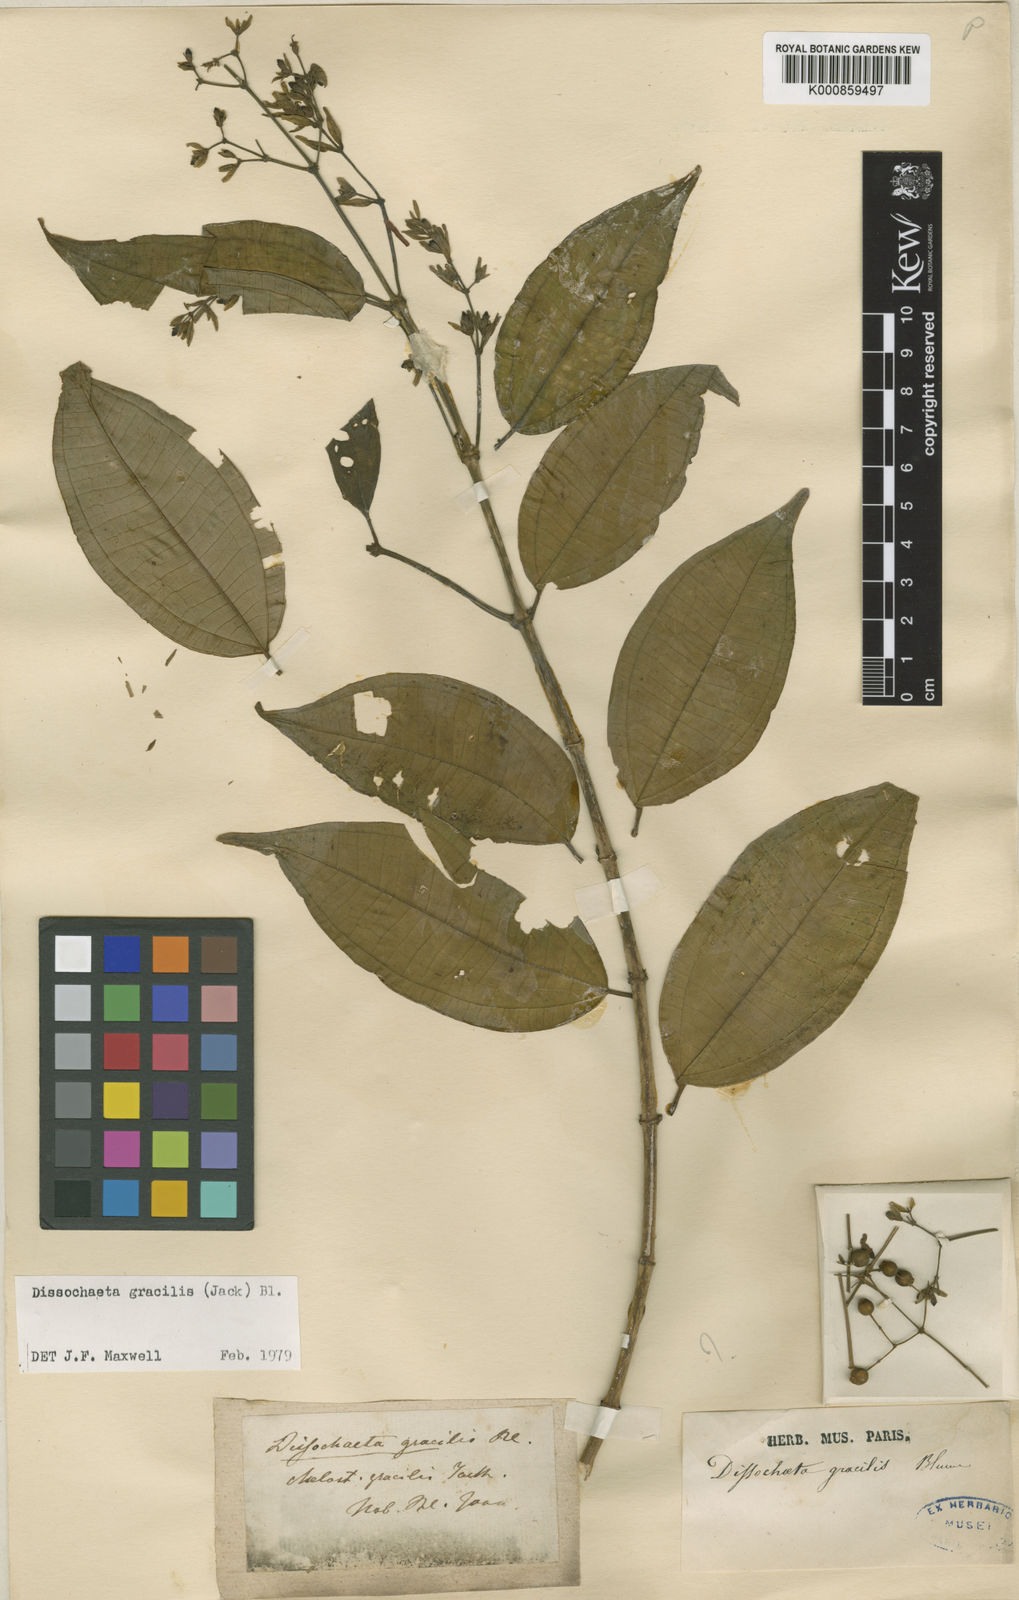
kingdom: Plantae
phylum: Tracheophyta
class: Magnoliopsida
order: Myrtales
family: Melastomataceae
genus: Dissochaeta
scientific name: Dissochaeta gracilis
